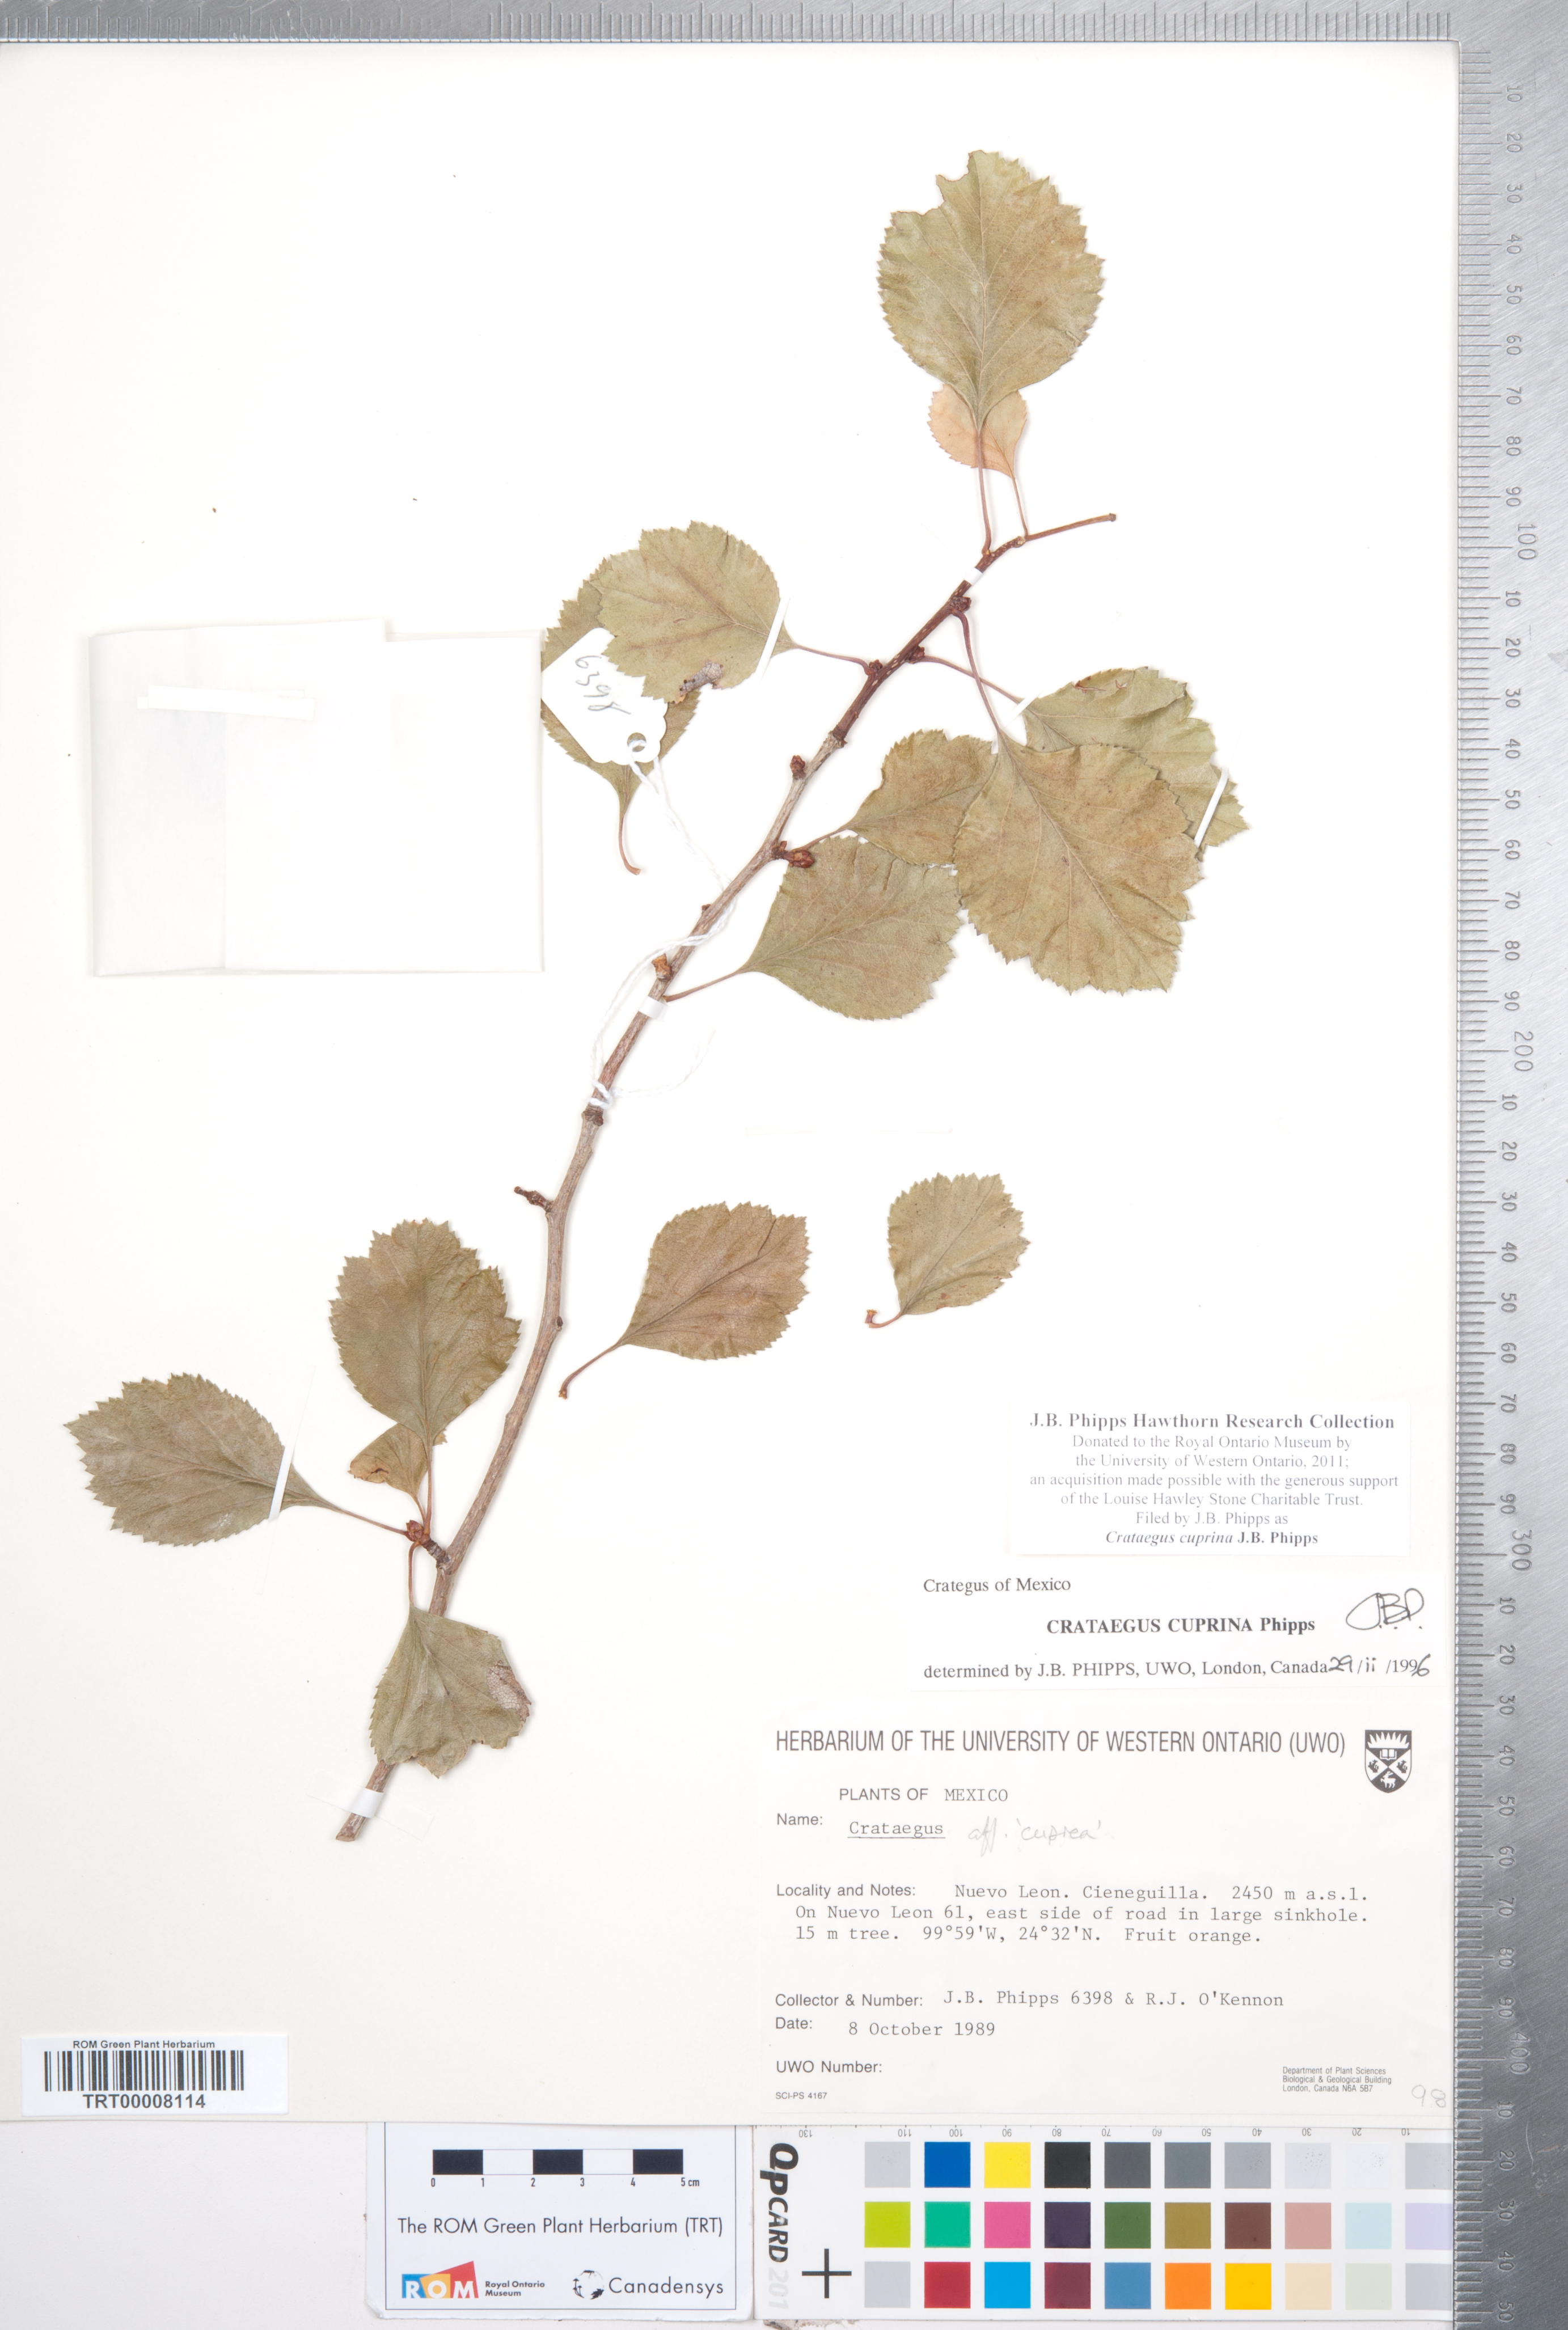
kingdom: Plantae
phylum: Tracheophyta
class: Magnoliopsida
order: Rosales
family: Rosaceae
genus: Crataegus
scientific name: Crataegus cuprina
